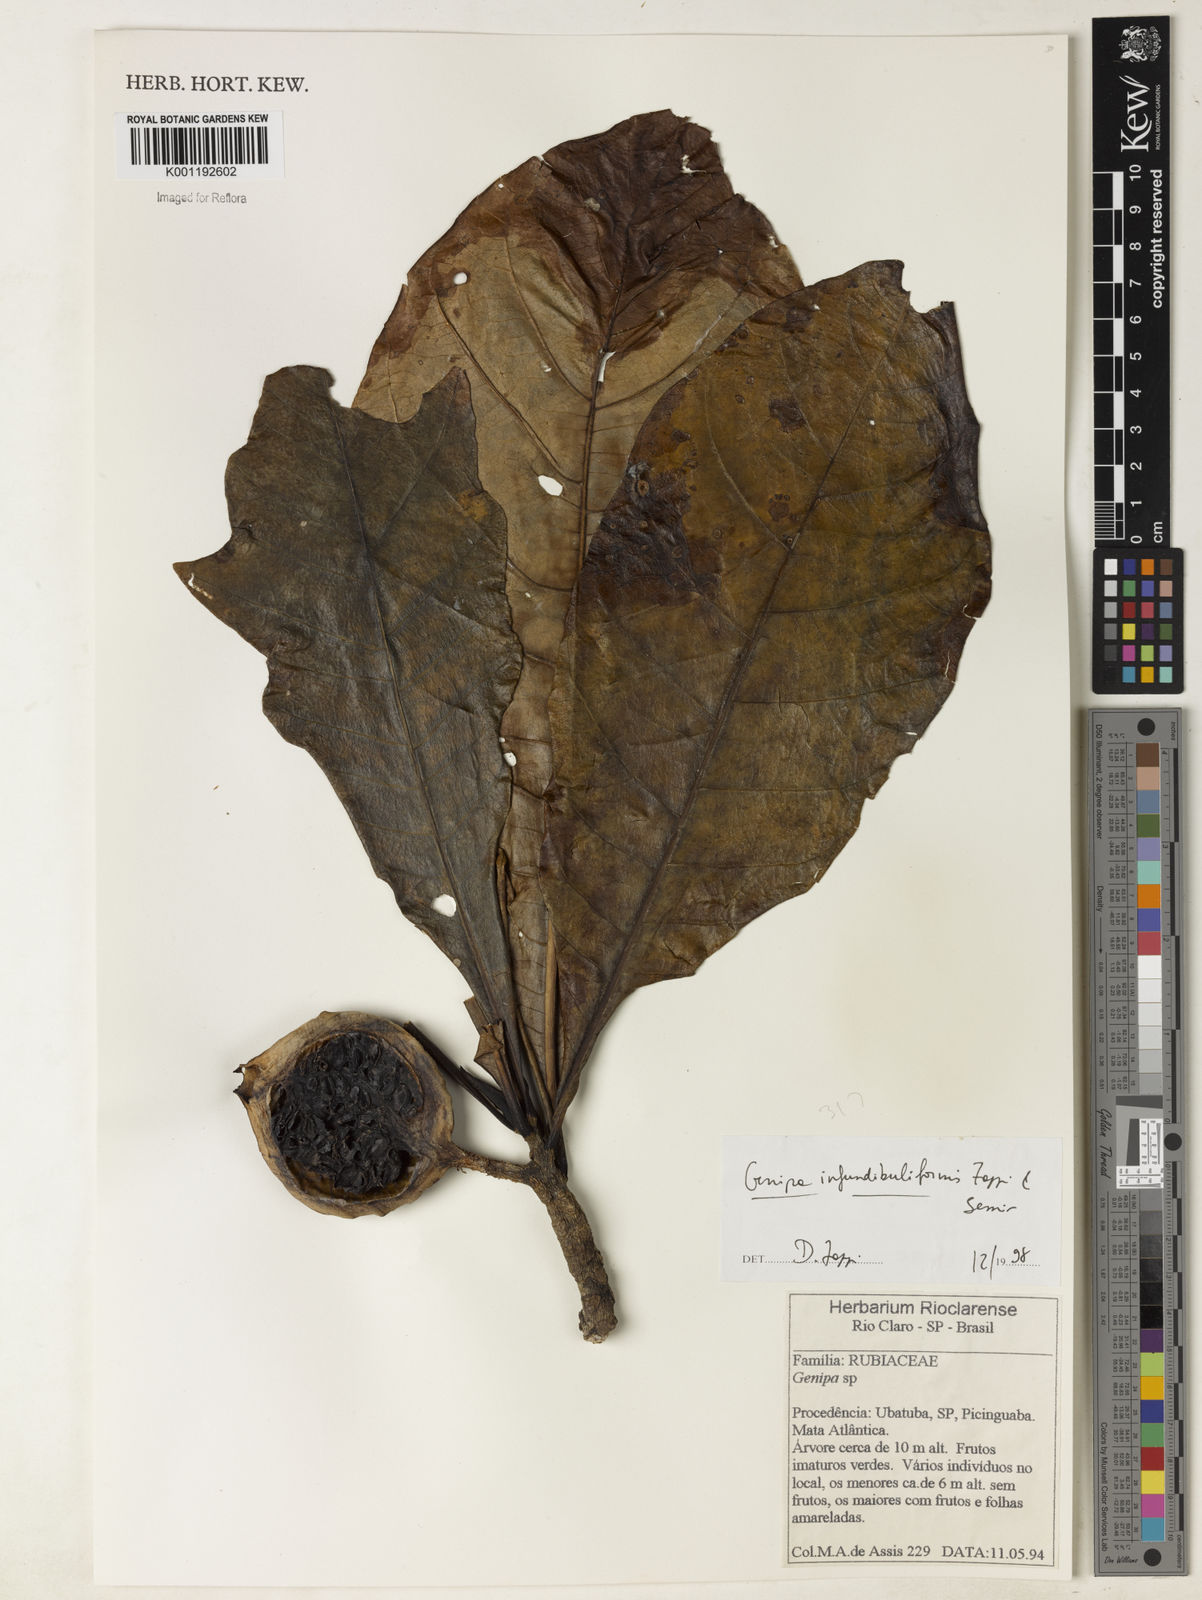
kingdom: Plantae
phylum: Tracheophyta
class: Magnoliopsida
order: Gentianales
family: Rubiaceae
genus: Genipa
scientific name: Genipa infundibuliformis
